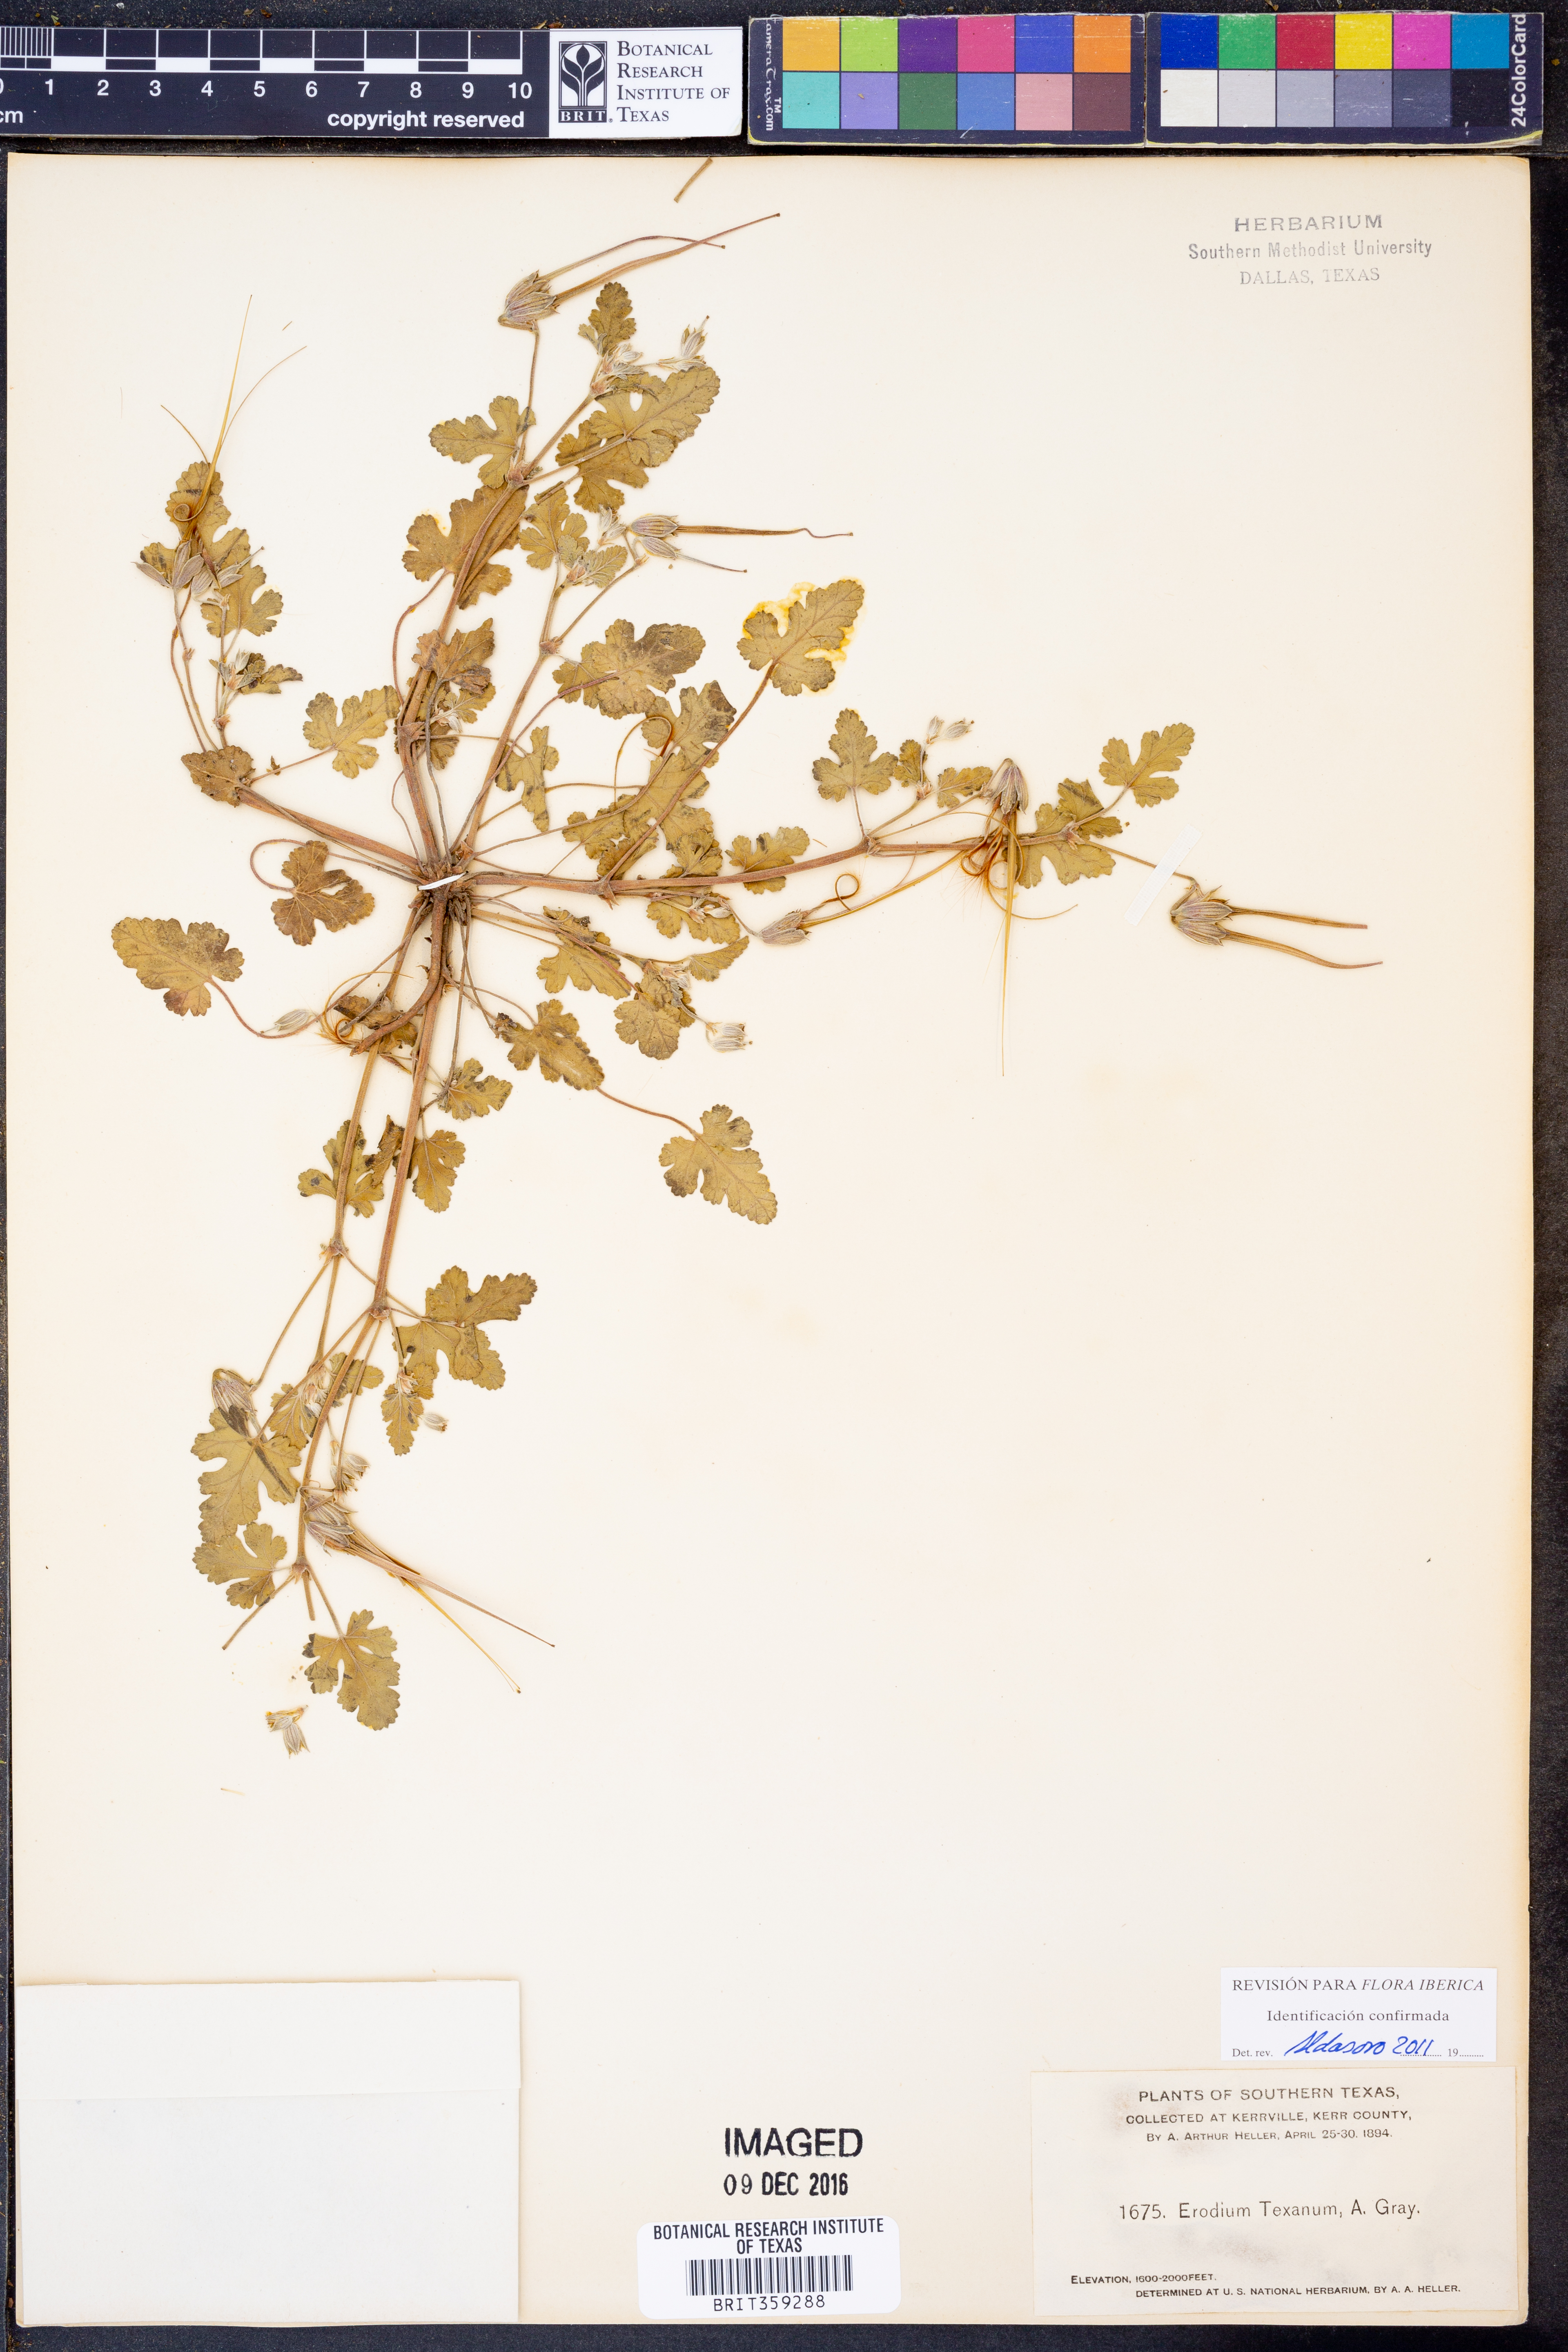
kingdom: Plantae
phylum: Tracheophyta
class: Magnoliopsida
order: Geraniales
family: Geraniaceae
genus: Erodium
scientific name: Erodium texanum
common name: Texas stork's-bill
